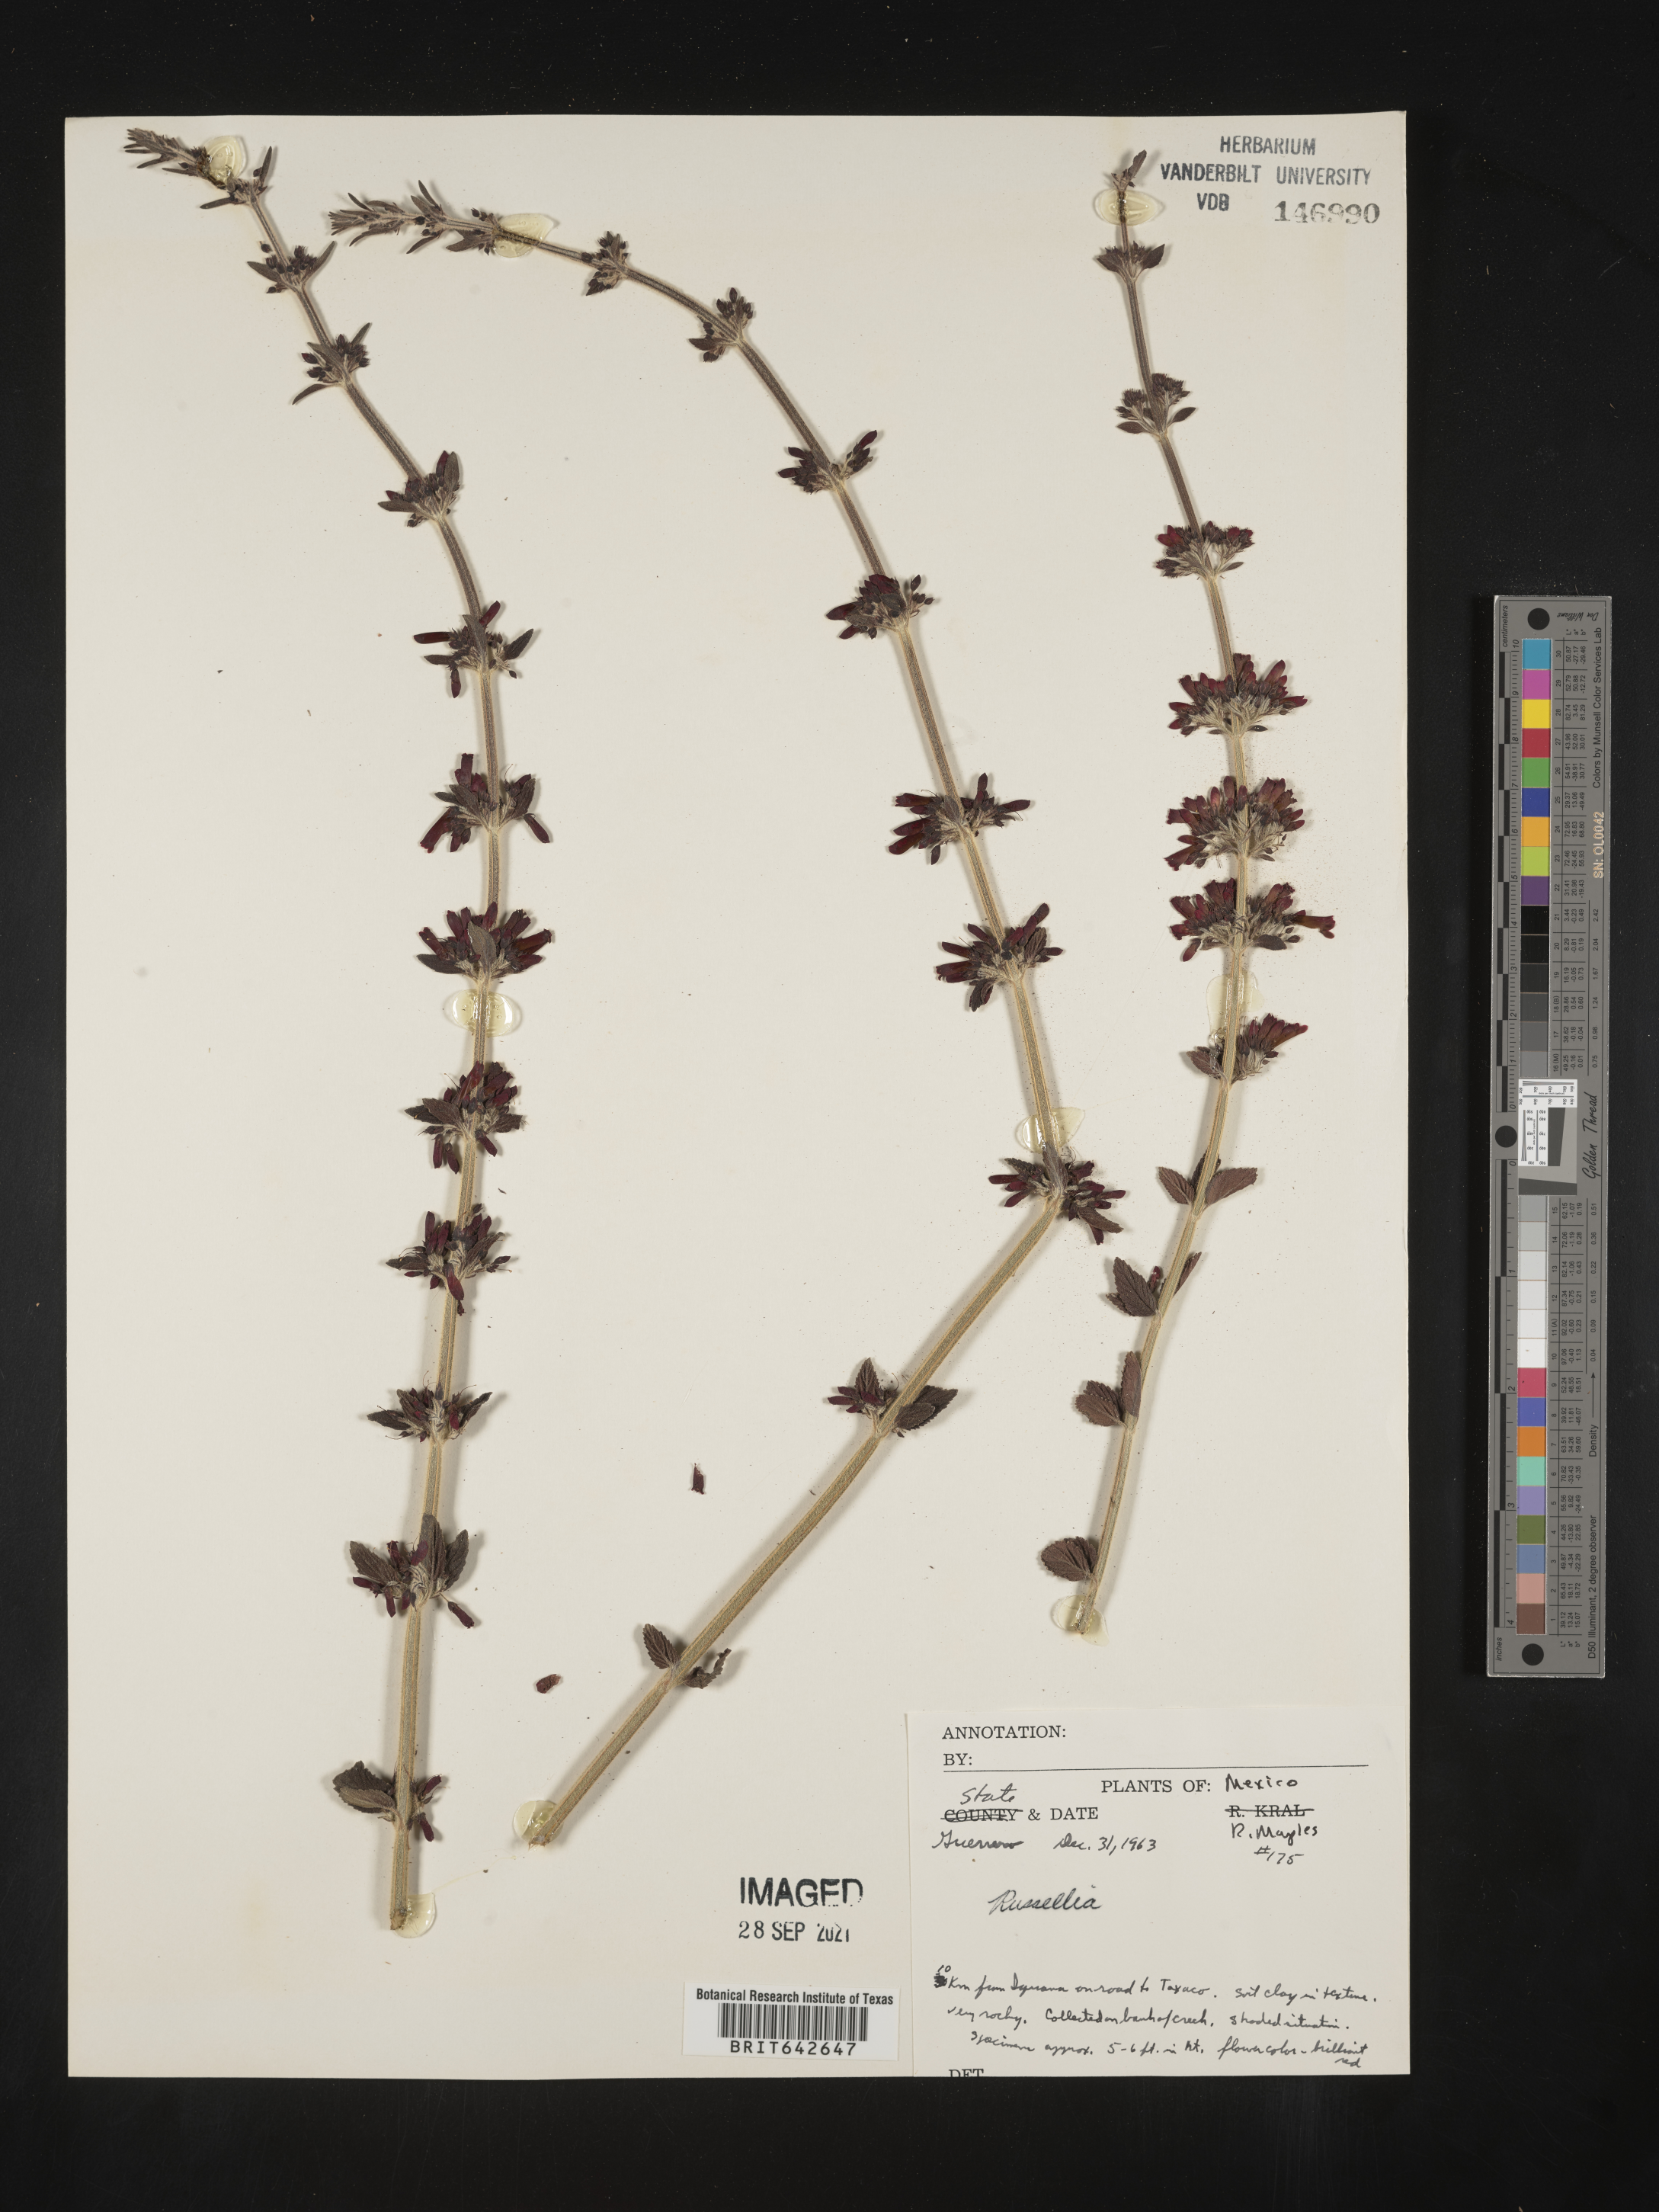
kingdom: Plantae
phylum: Tracheophyta
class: Magnoliopsida
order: Lamiales
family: Plantaginaceae
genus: Russelia
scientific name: Russelia
